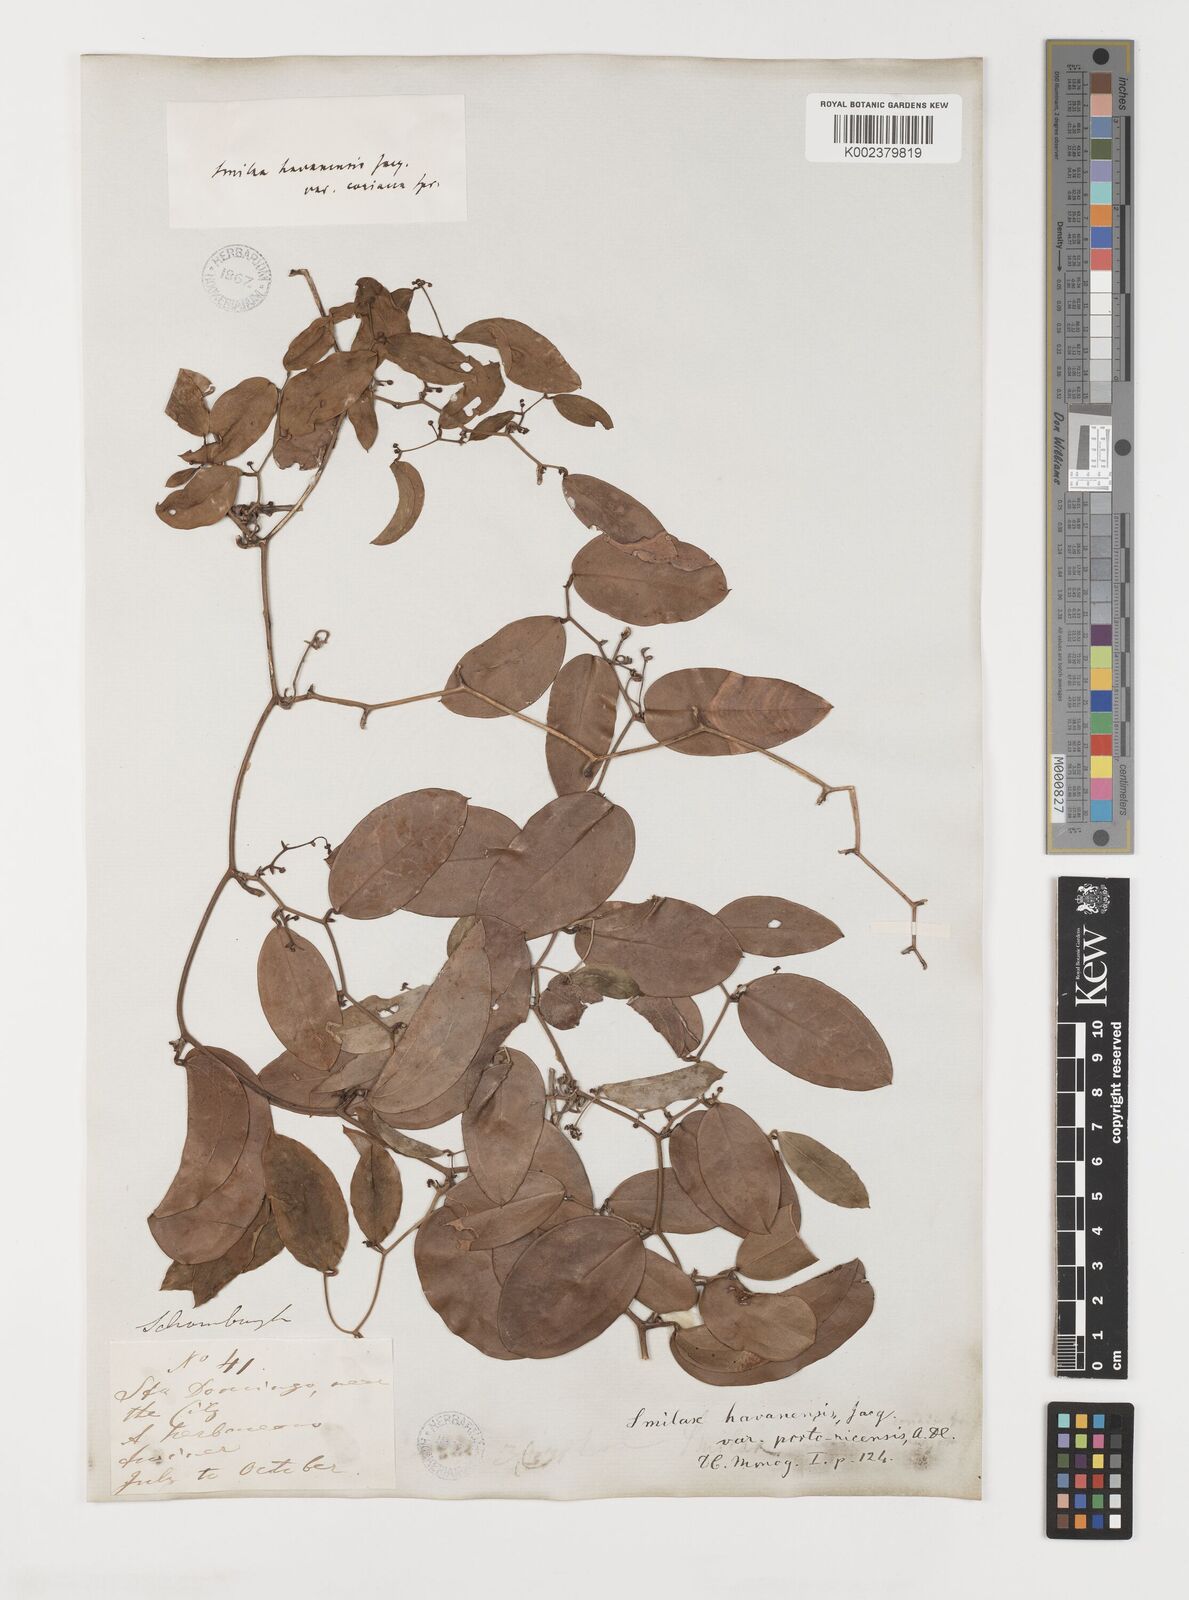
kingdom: Plantae
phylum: Tracheophyta
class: Liliopsida
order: Liliales
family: Smilacaceae
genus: Smilax
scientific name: Smilax populnea
